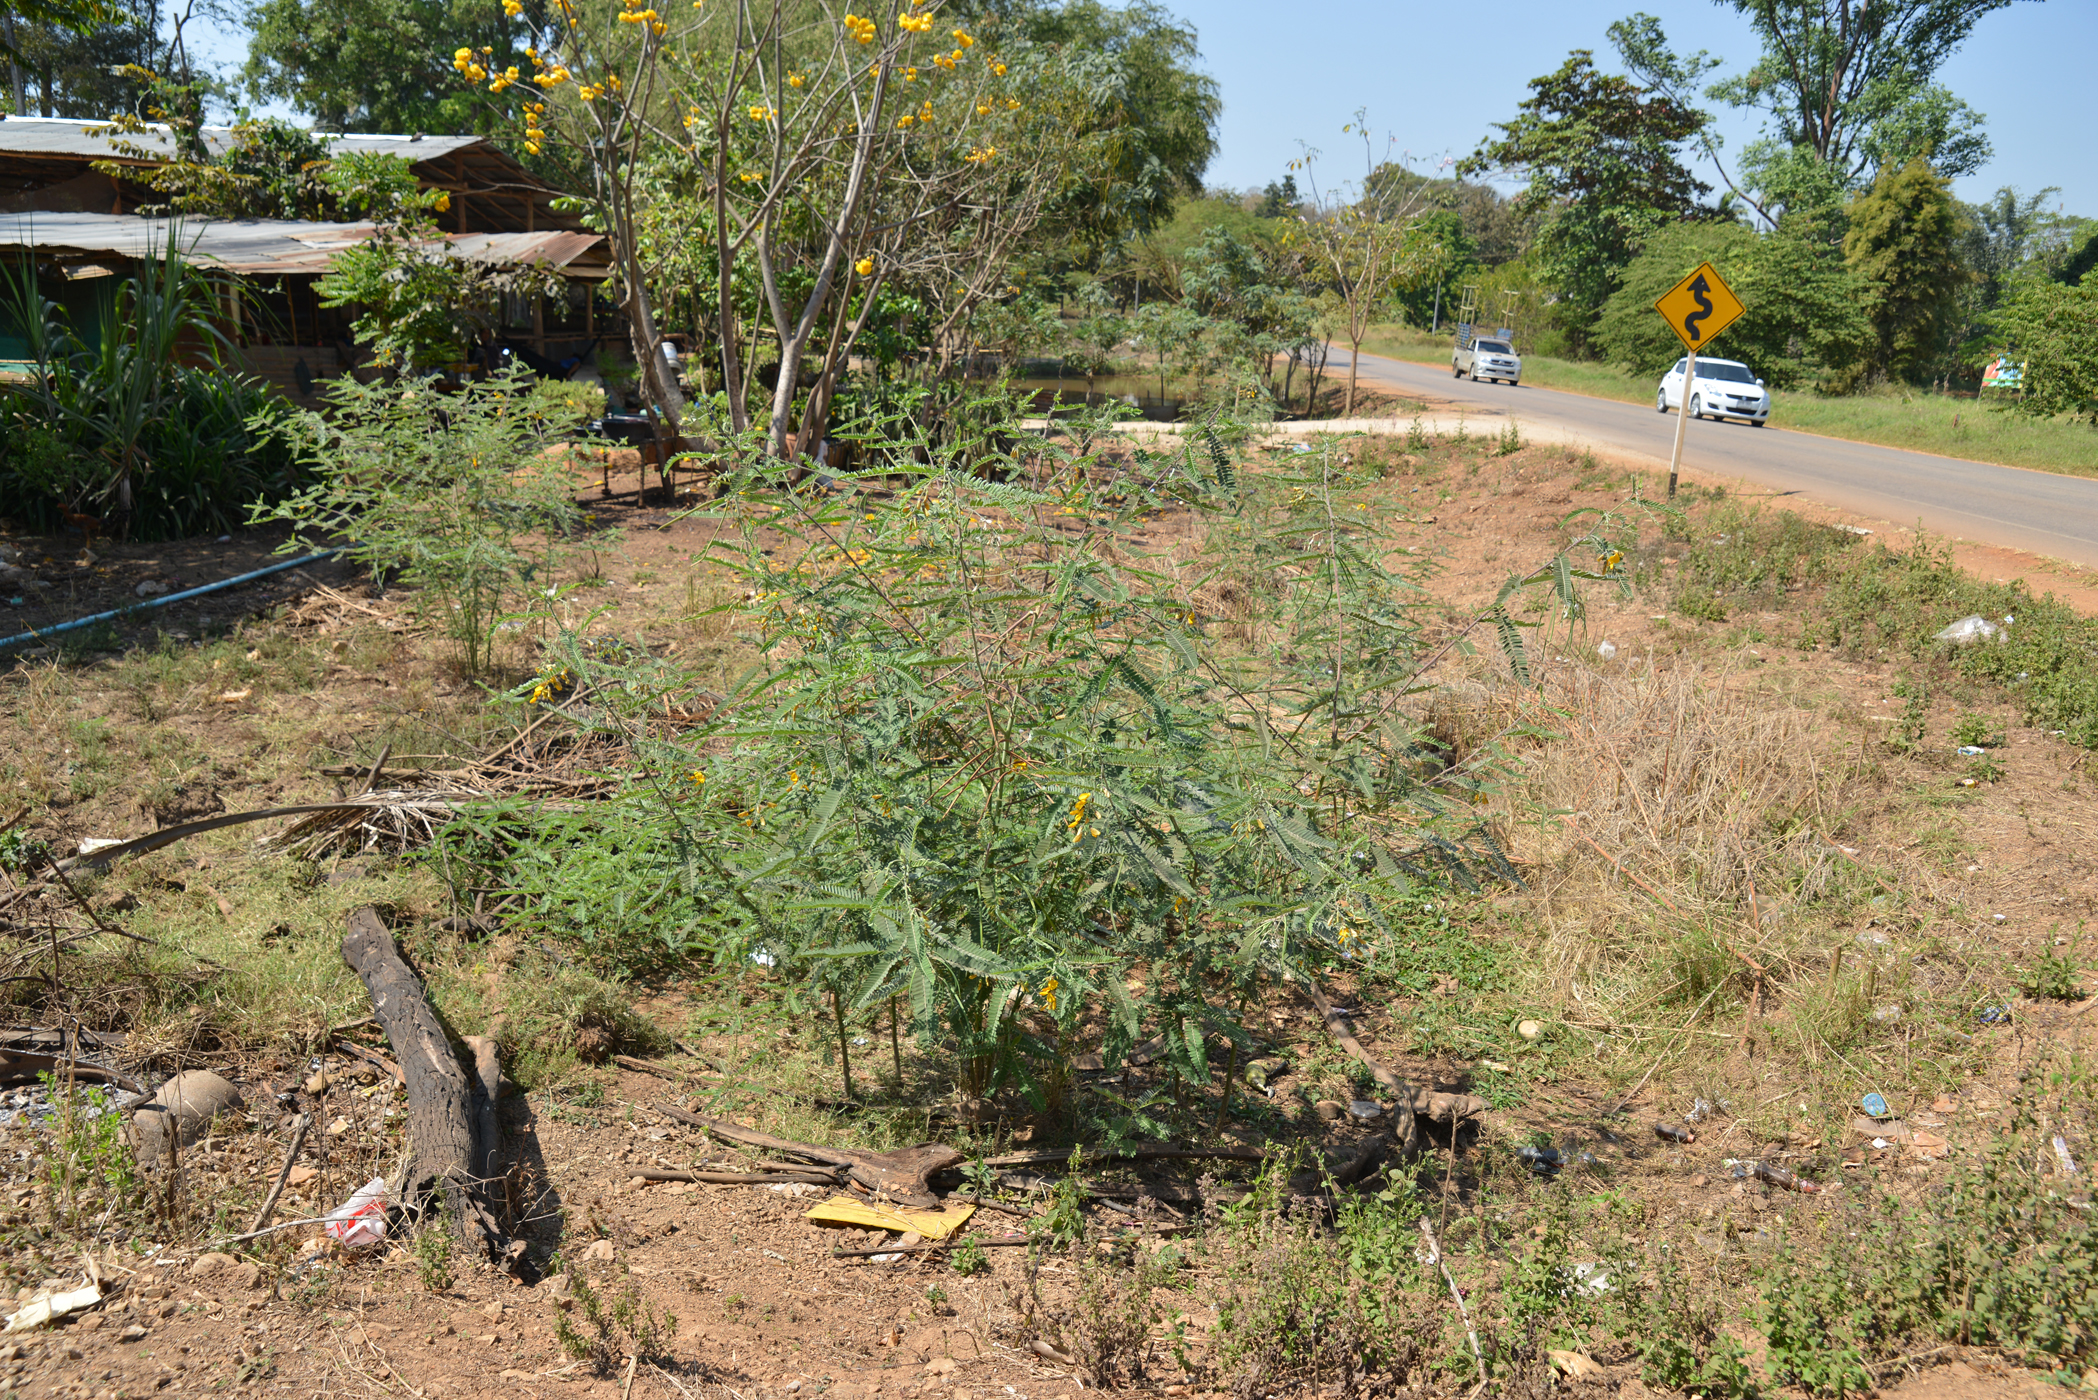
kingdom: Plantae
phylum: Tracheophyta
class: Magnoliopsida
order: Fabales
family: Fabaceae
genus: Sesbania
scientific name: Sesbania speciosa
